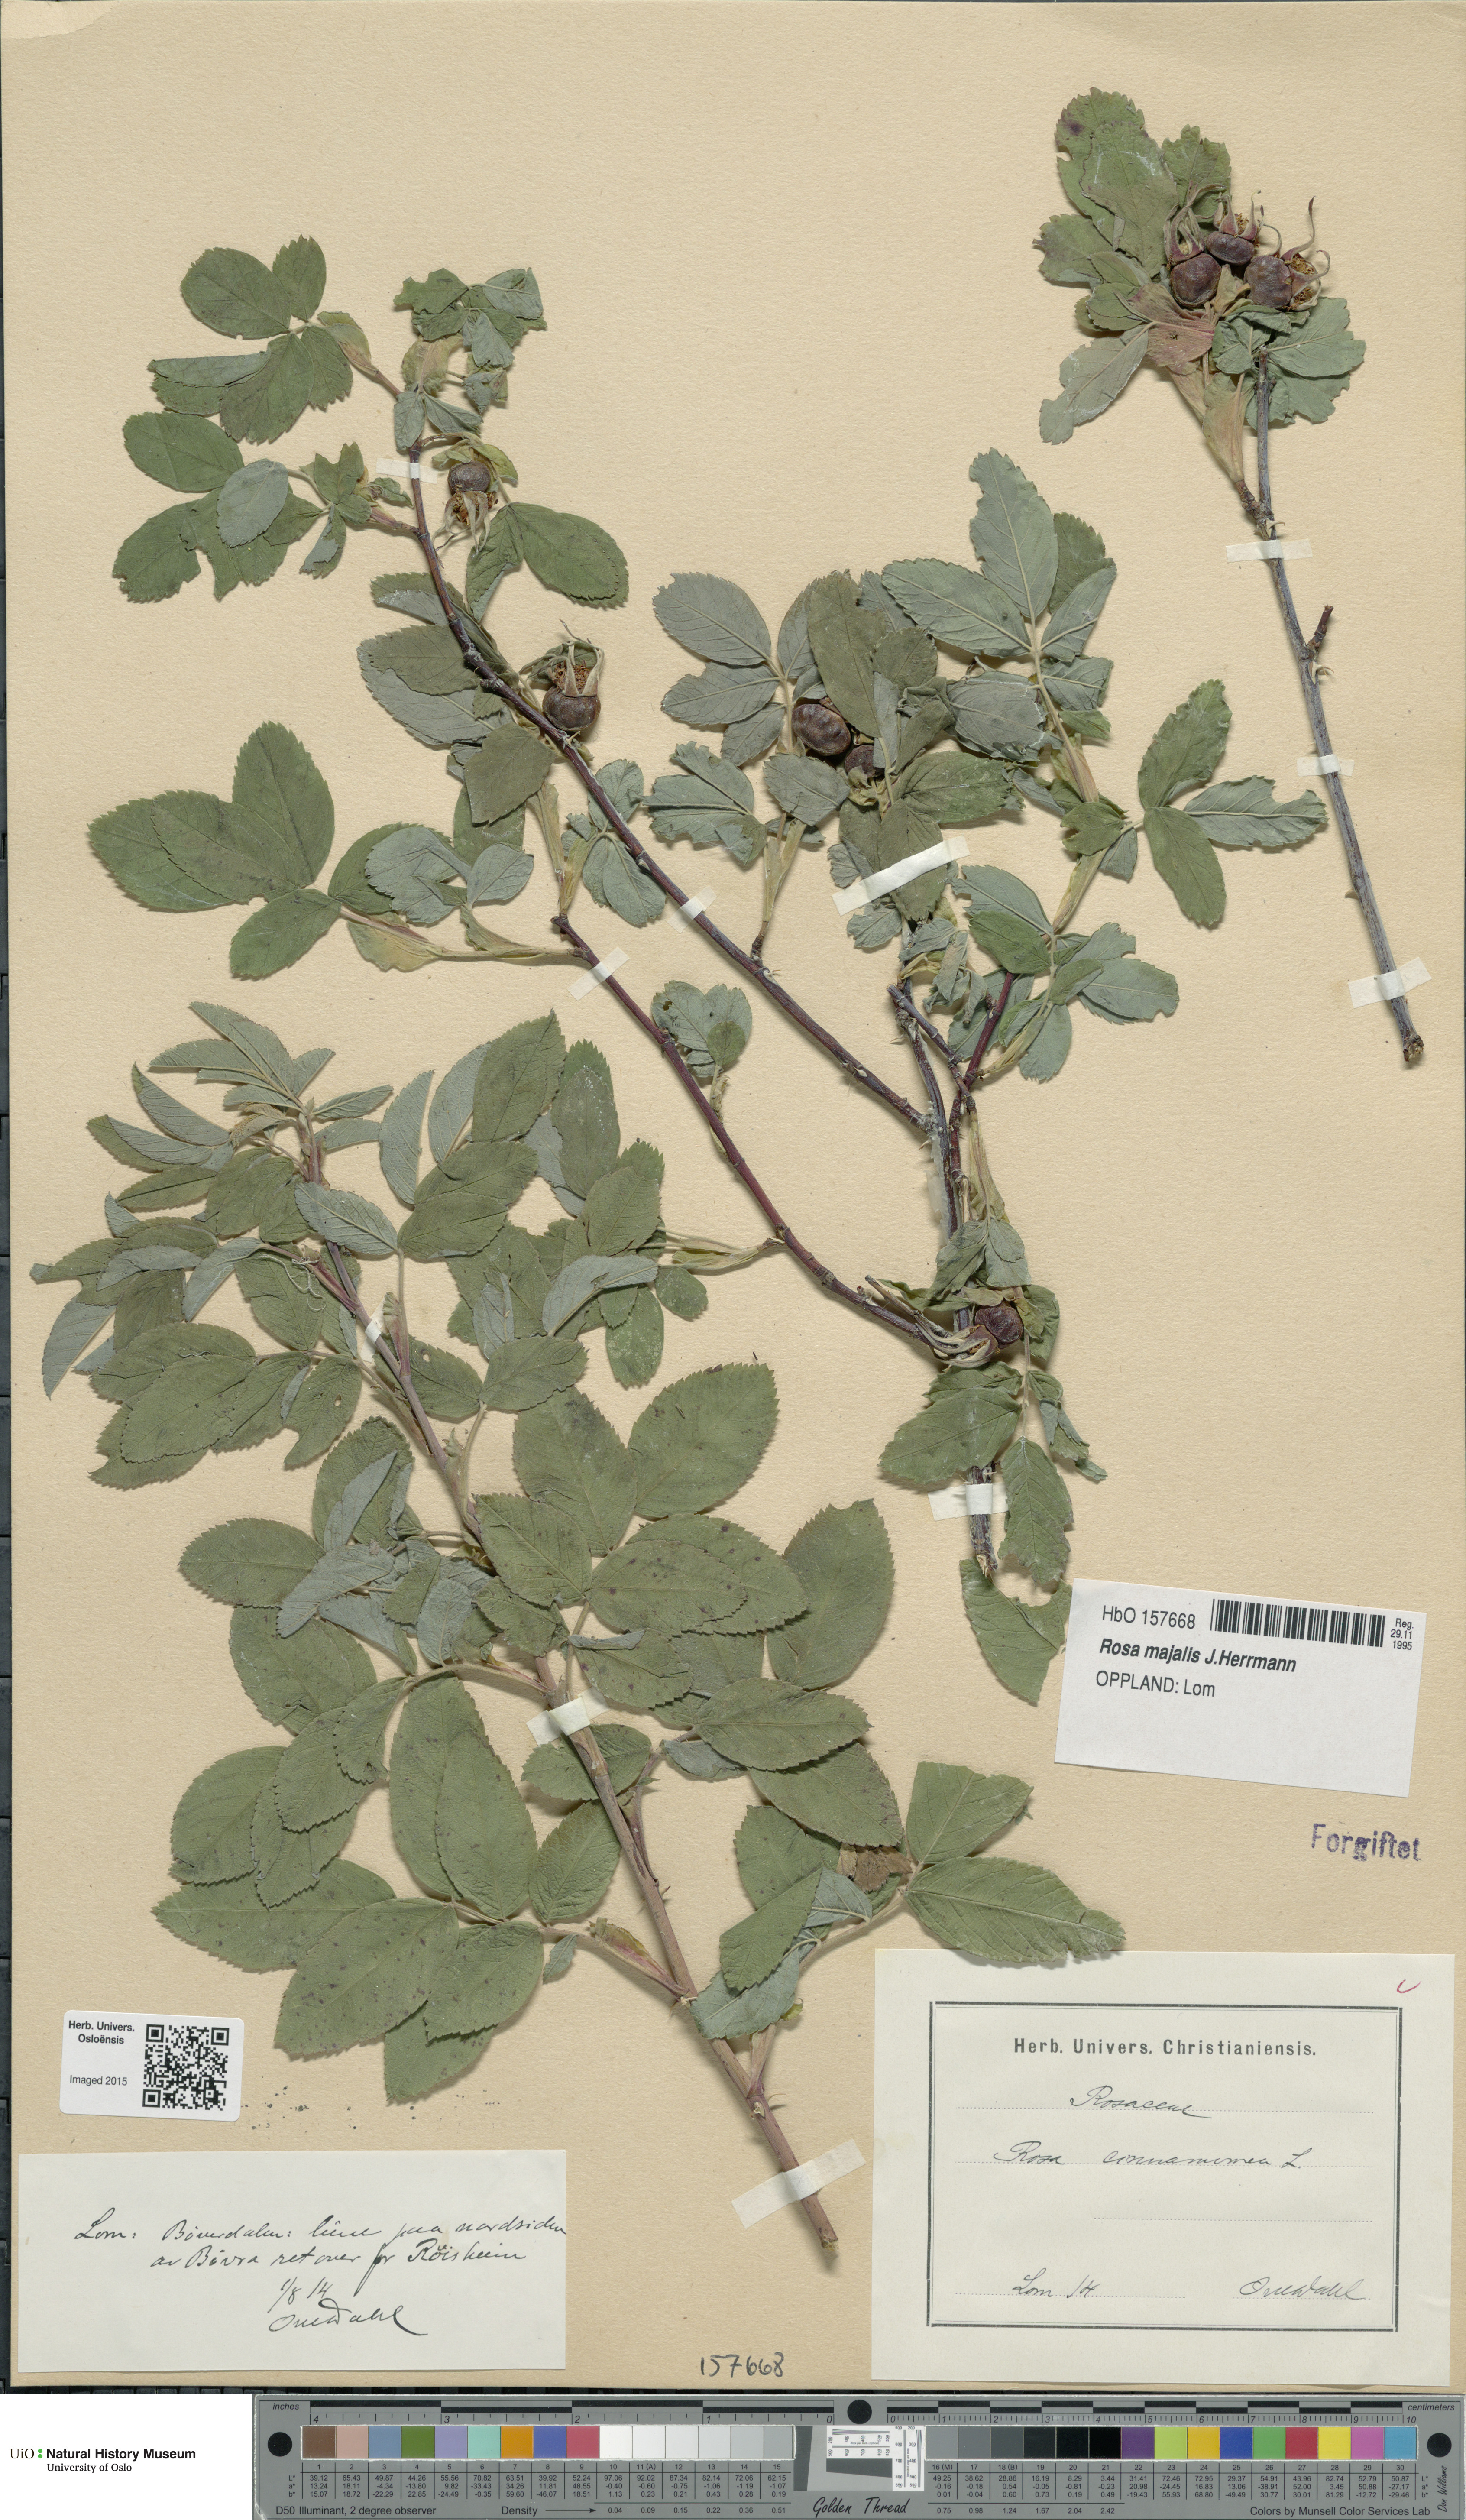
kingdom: Plantae
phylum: Tracheophyta
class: Magnoliopsida
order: Rosales
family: Rosaceae
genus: Rosa
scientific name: Rosa pendulina
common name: Alpine rose
